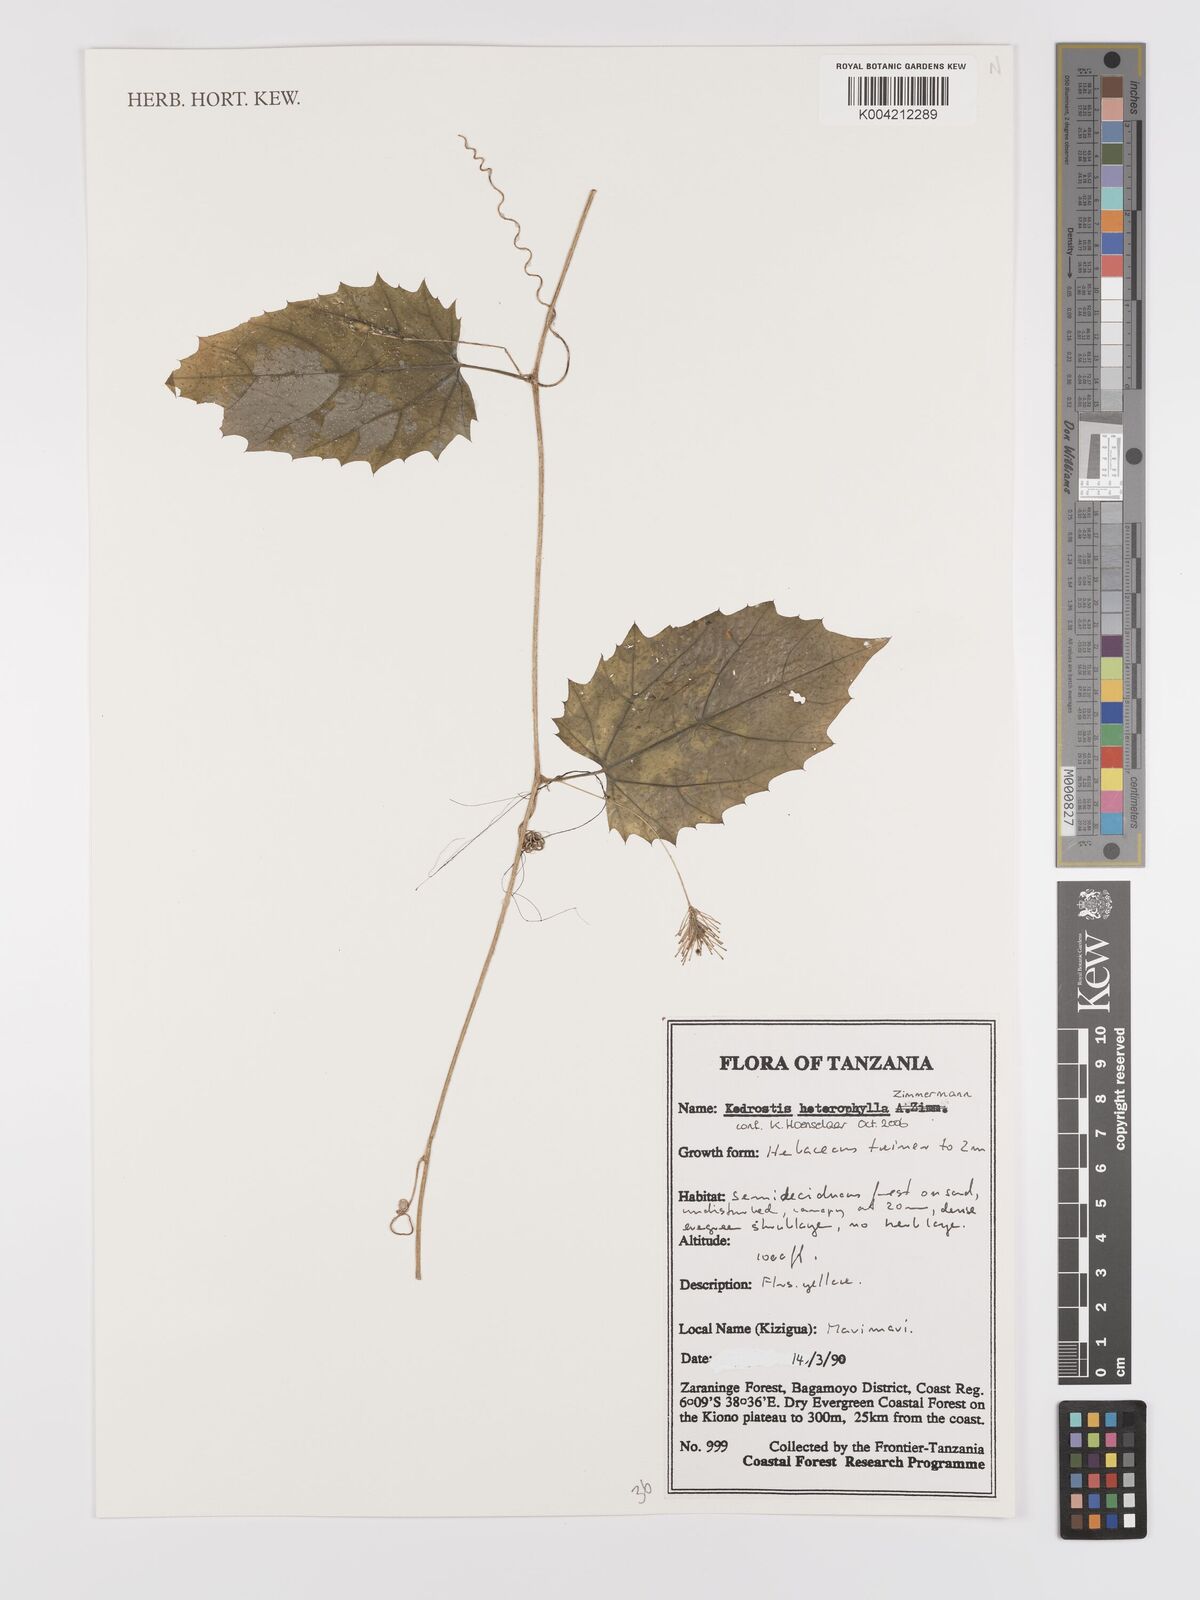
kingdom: Plantae
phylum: Tracheophyta
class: Magnoliopsida
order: Cucurbitales
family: Cucurbitaceae
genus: Kedrostis
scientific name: Kedrostis heterophylla
